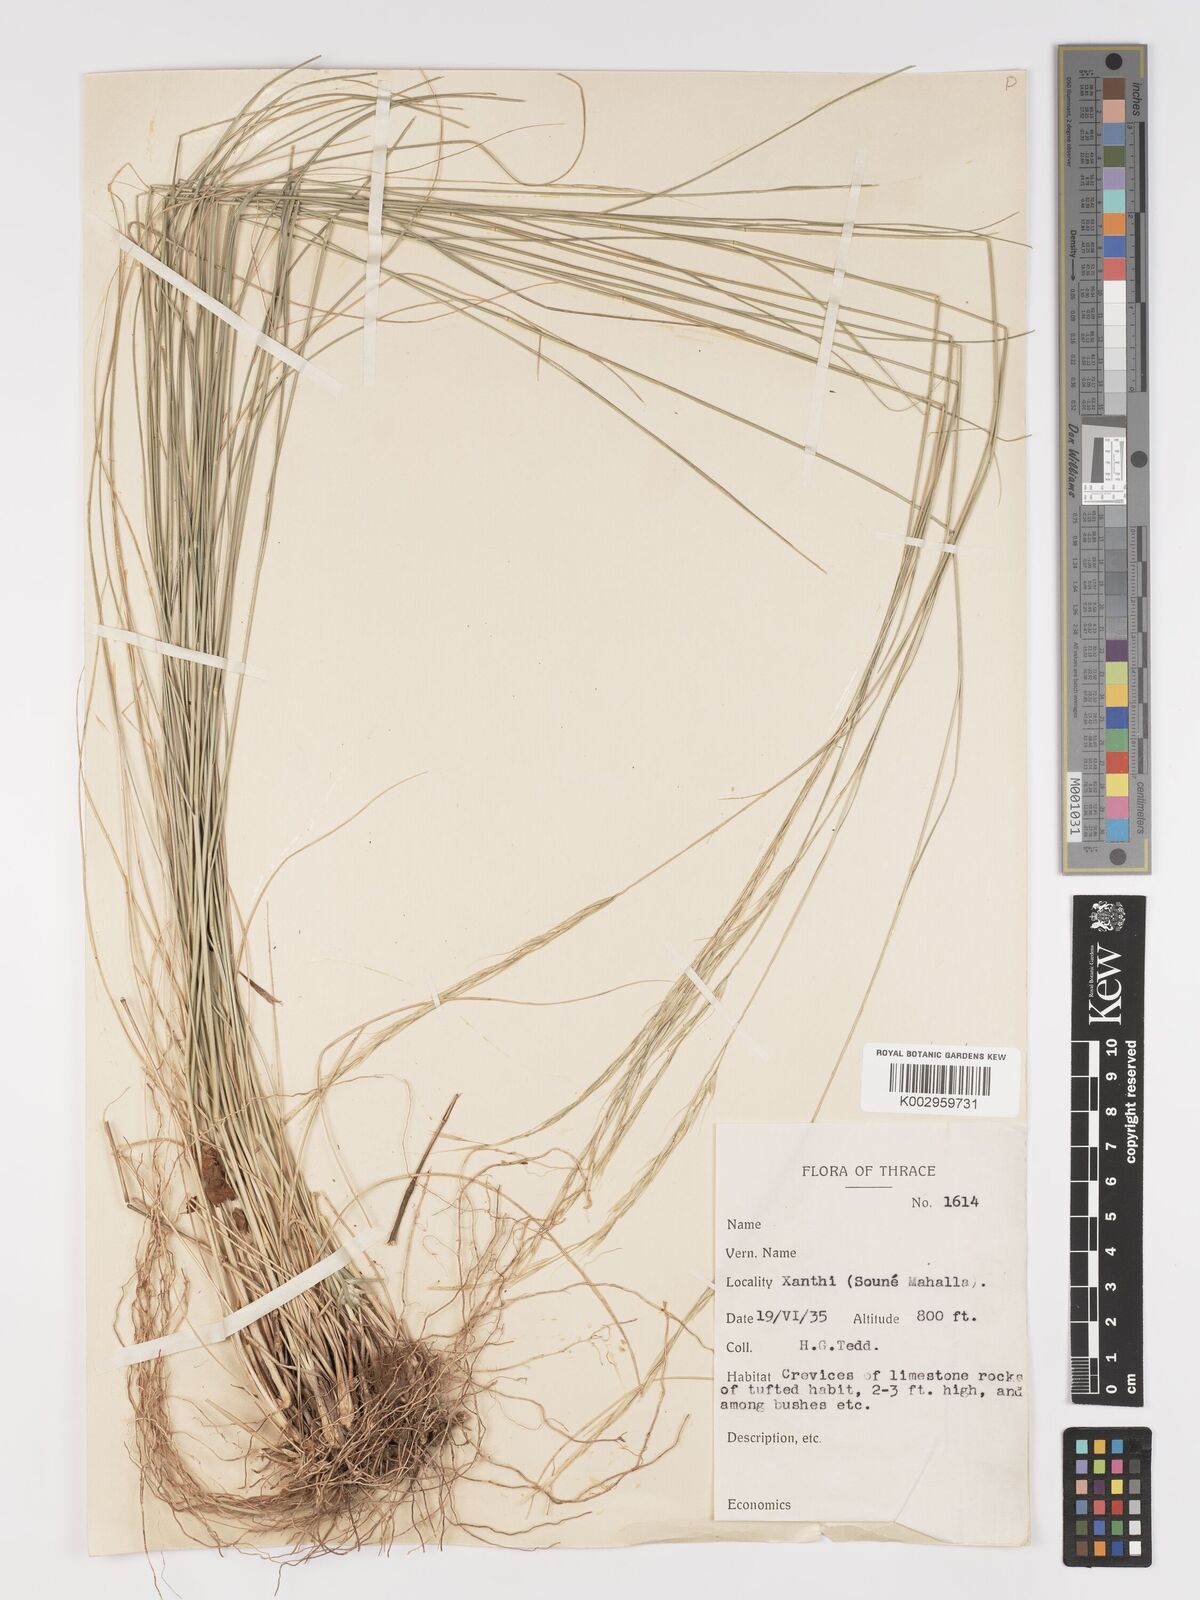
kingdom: Plantae
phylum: Tracheophyta
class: Liliopsida
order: Poales
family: Poaceae
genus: Achnatherum
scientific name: Achnatherum bromoides
